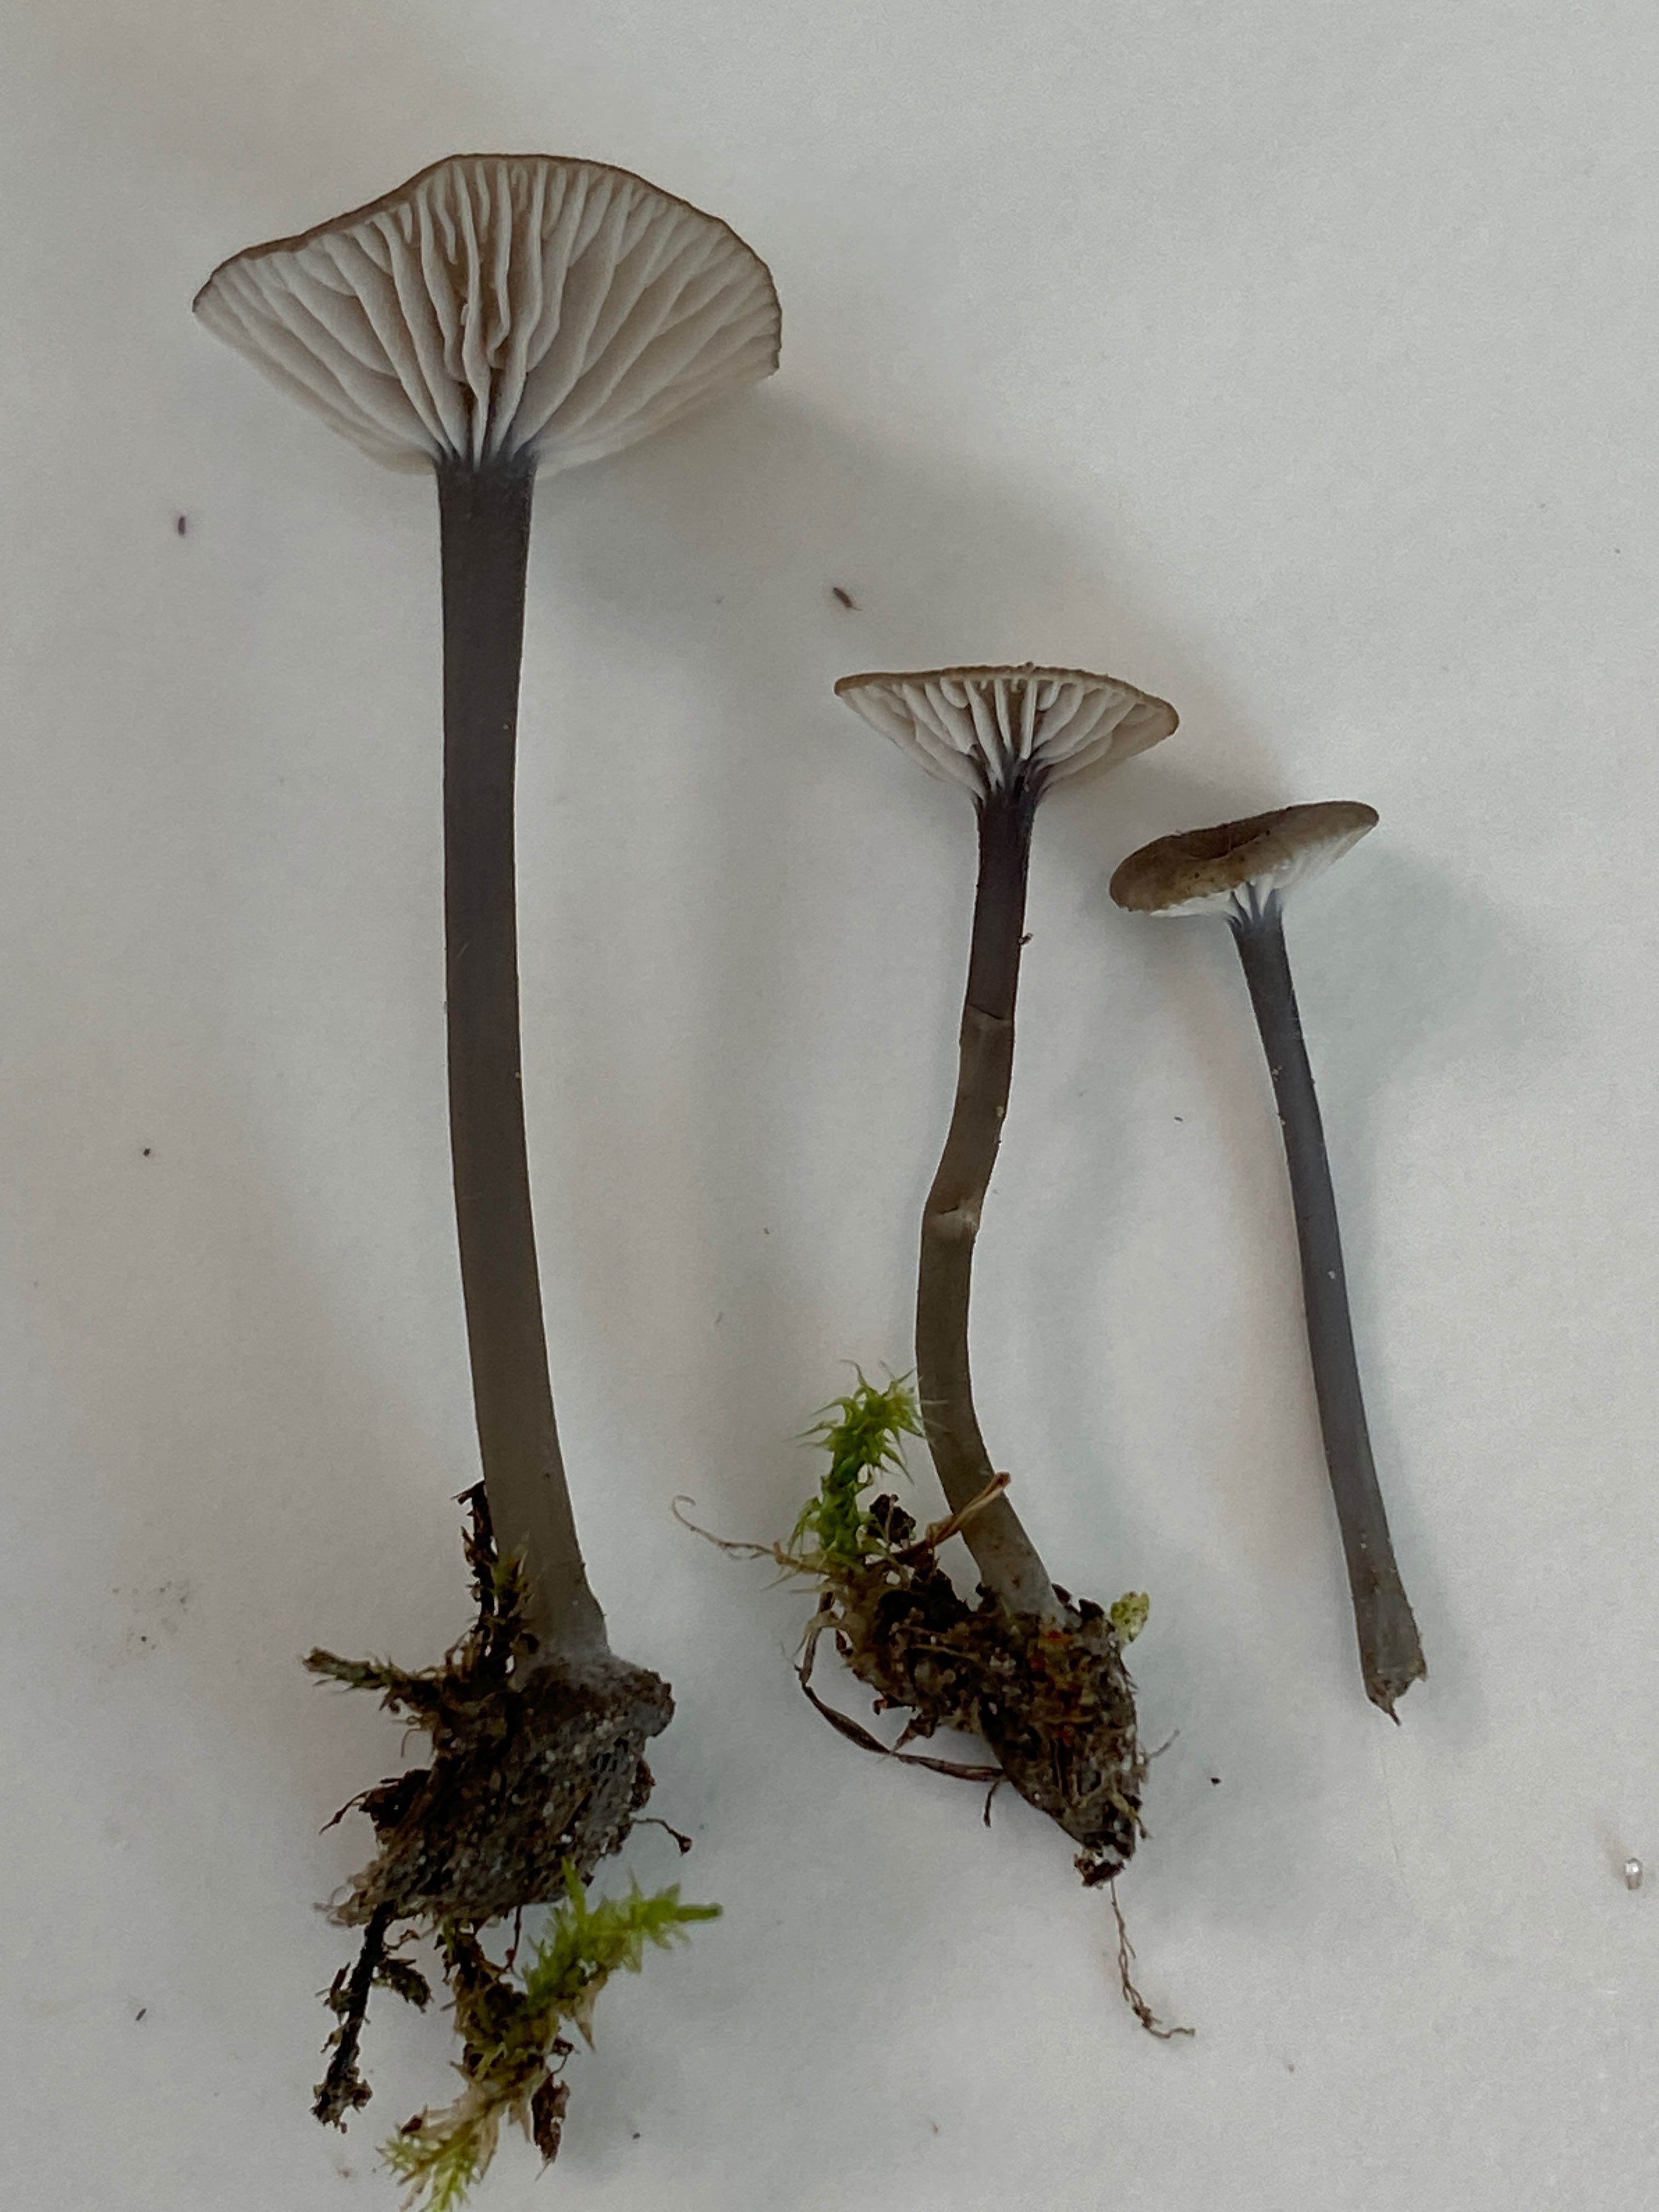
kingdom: Fungi
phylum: Basidiomycota
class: Agaricomycetes
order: Agaricales
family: Entolomataceae
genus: Entoloma
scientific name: Entoloma incarnatofuscescens
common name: tragt-rødblad
